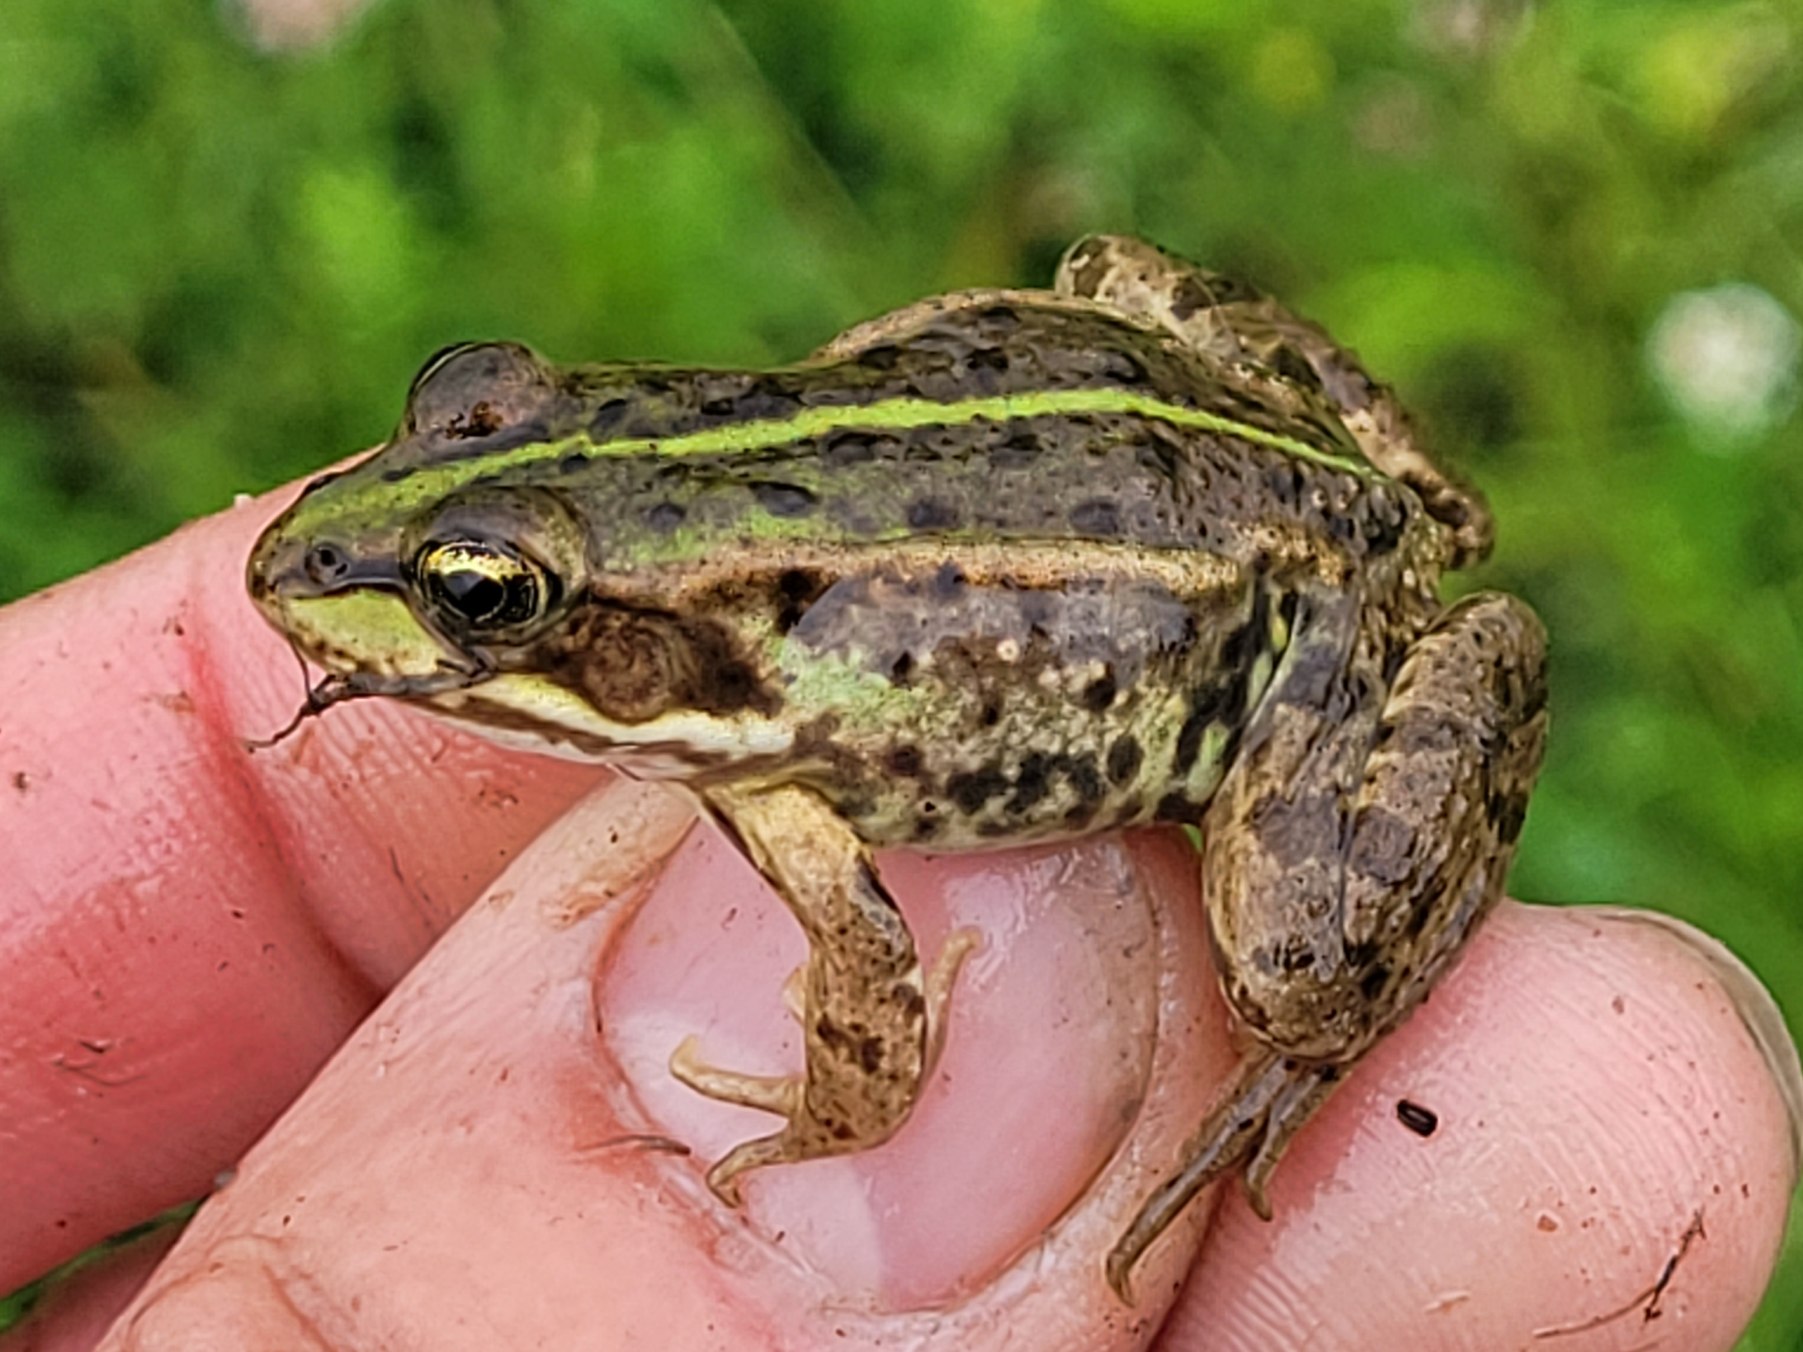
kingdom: Animalia
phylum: Chordata
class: Amphibia
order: Anura
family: Ranidae
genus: Pelophylax
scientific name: Pelophylax lessonae
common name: Grøn frø
